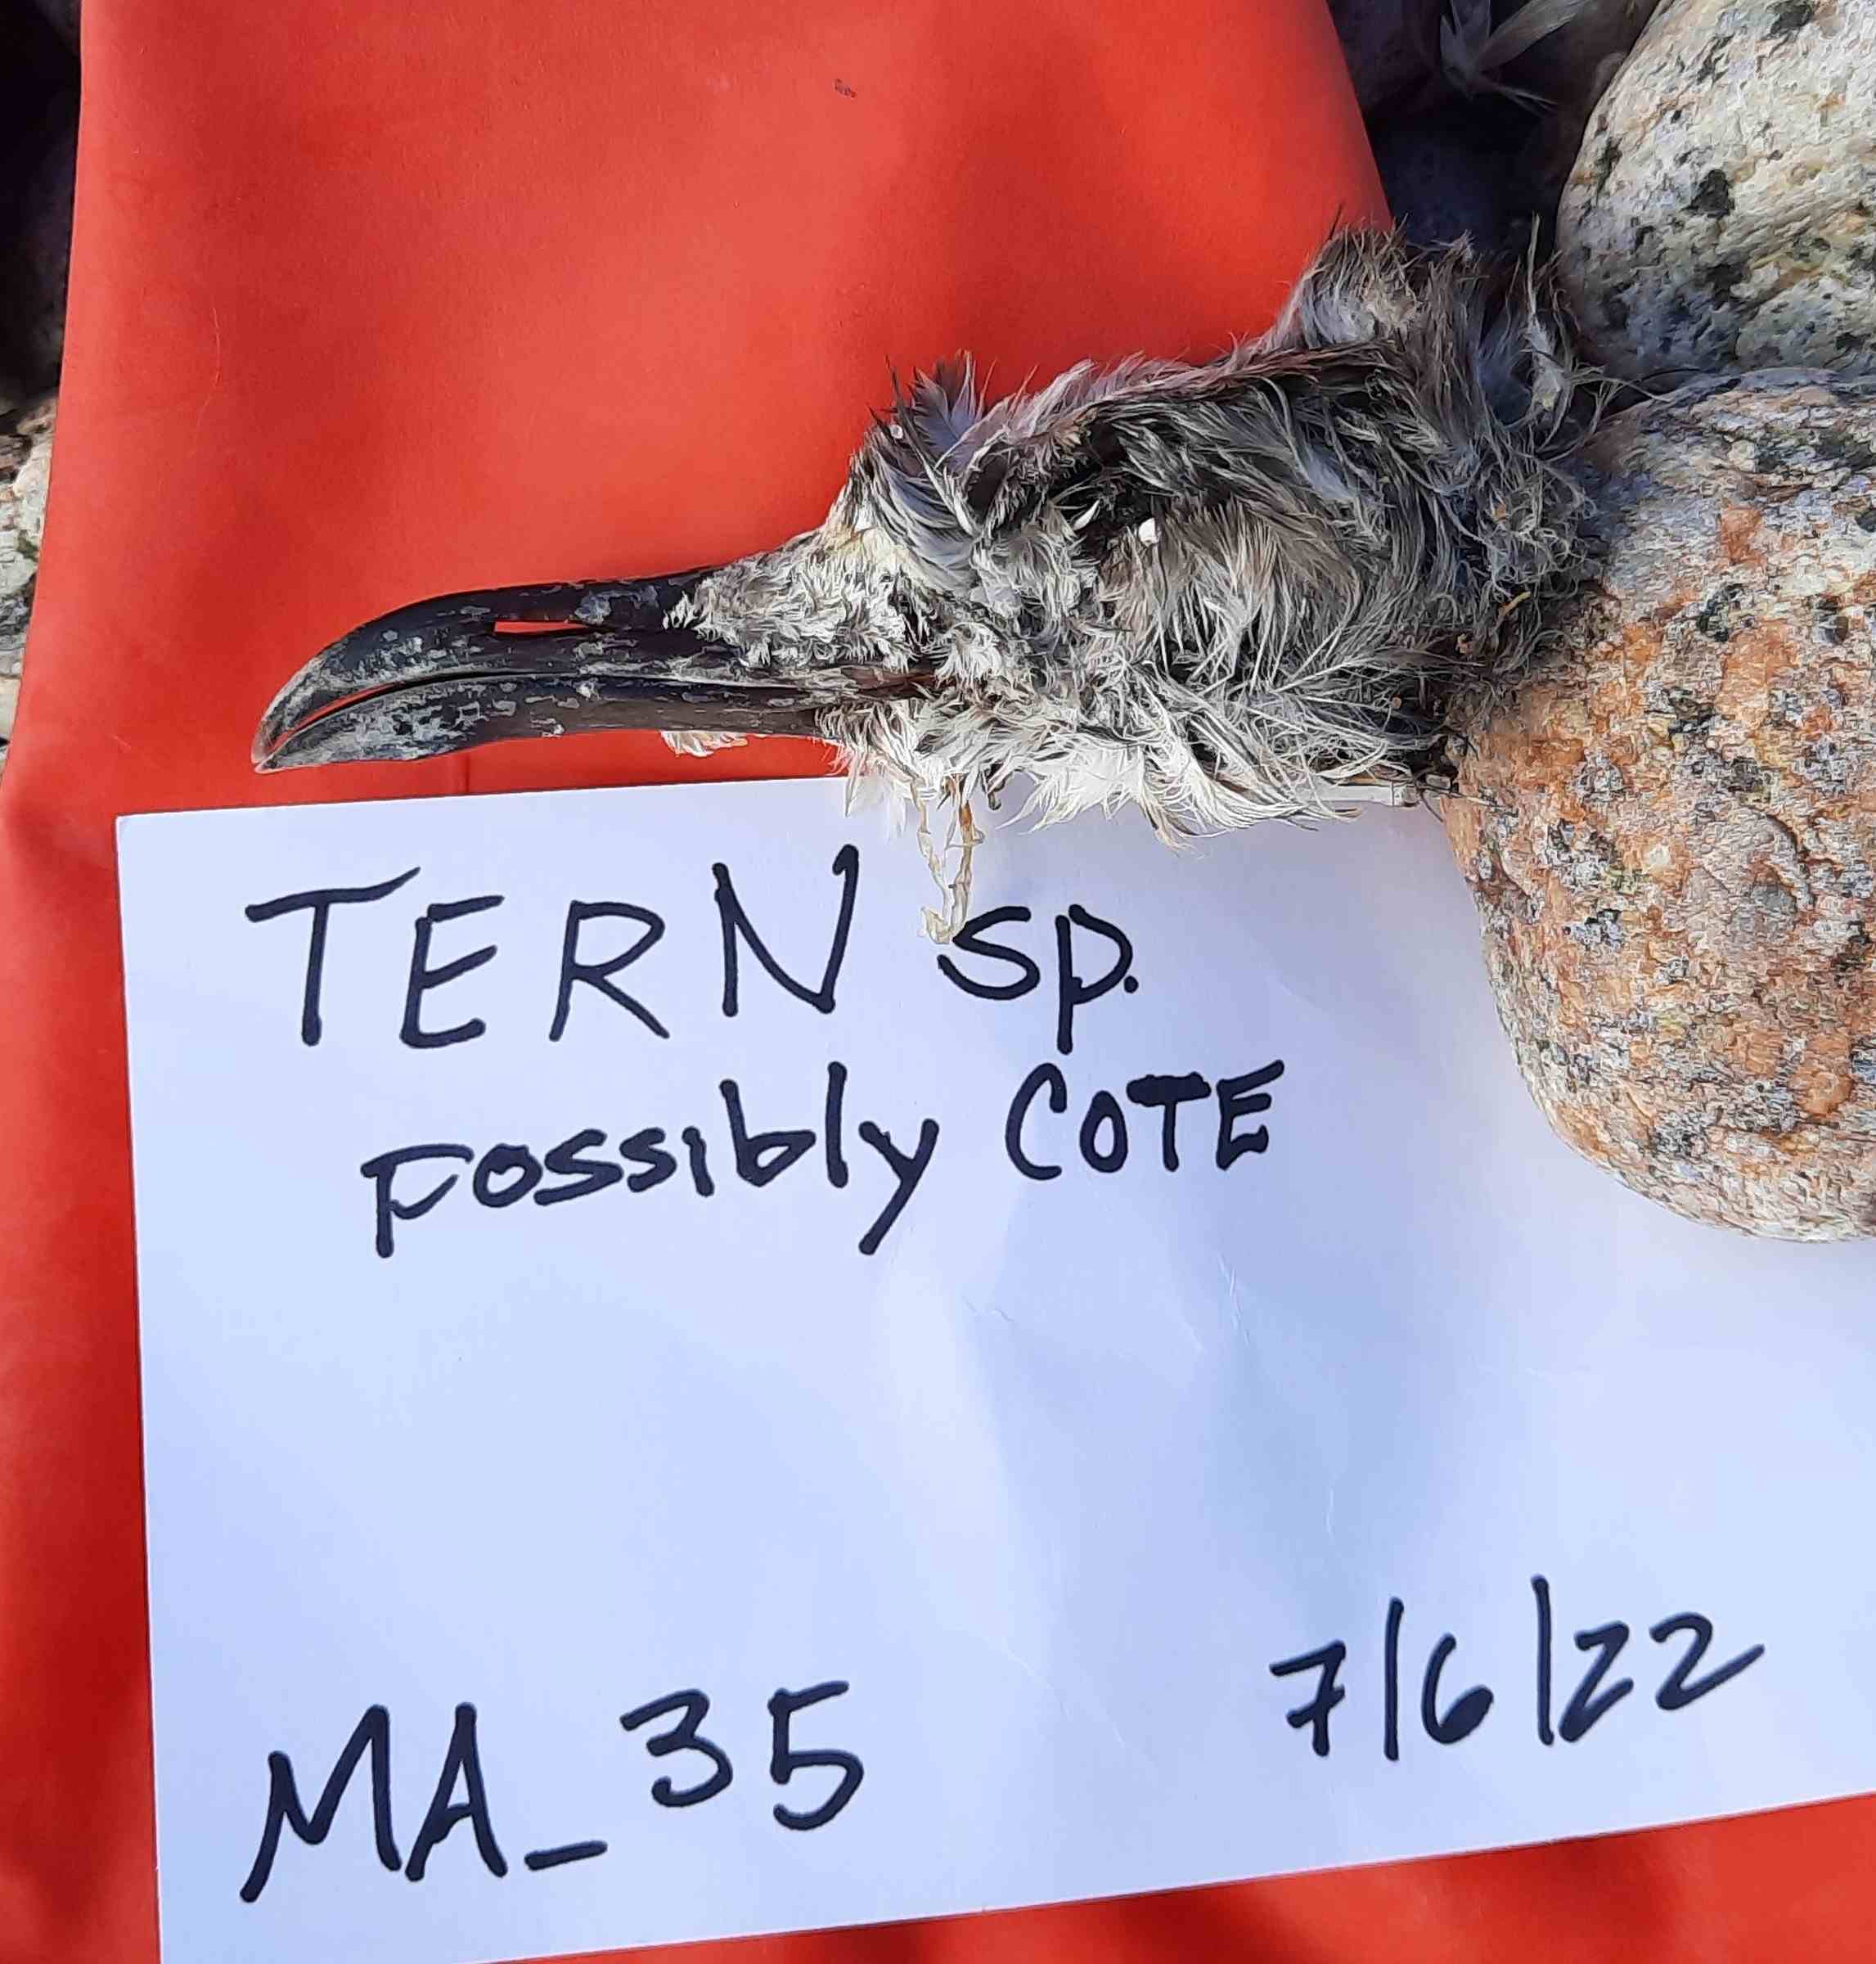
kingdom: Animalia
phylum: Chordata
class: Aves
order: Charadriiformes
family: Laridae
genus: Sterna
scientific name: Sterna hirundo
